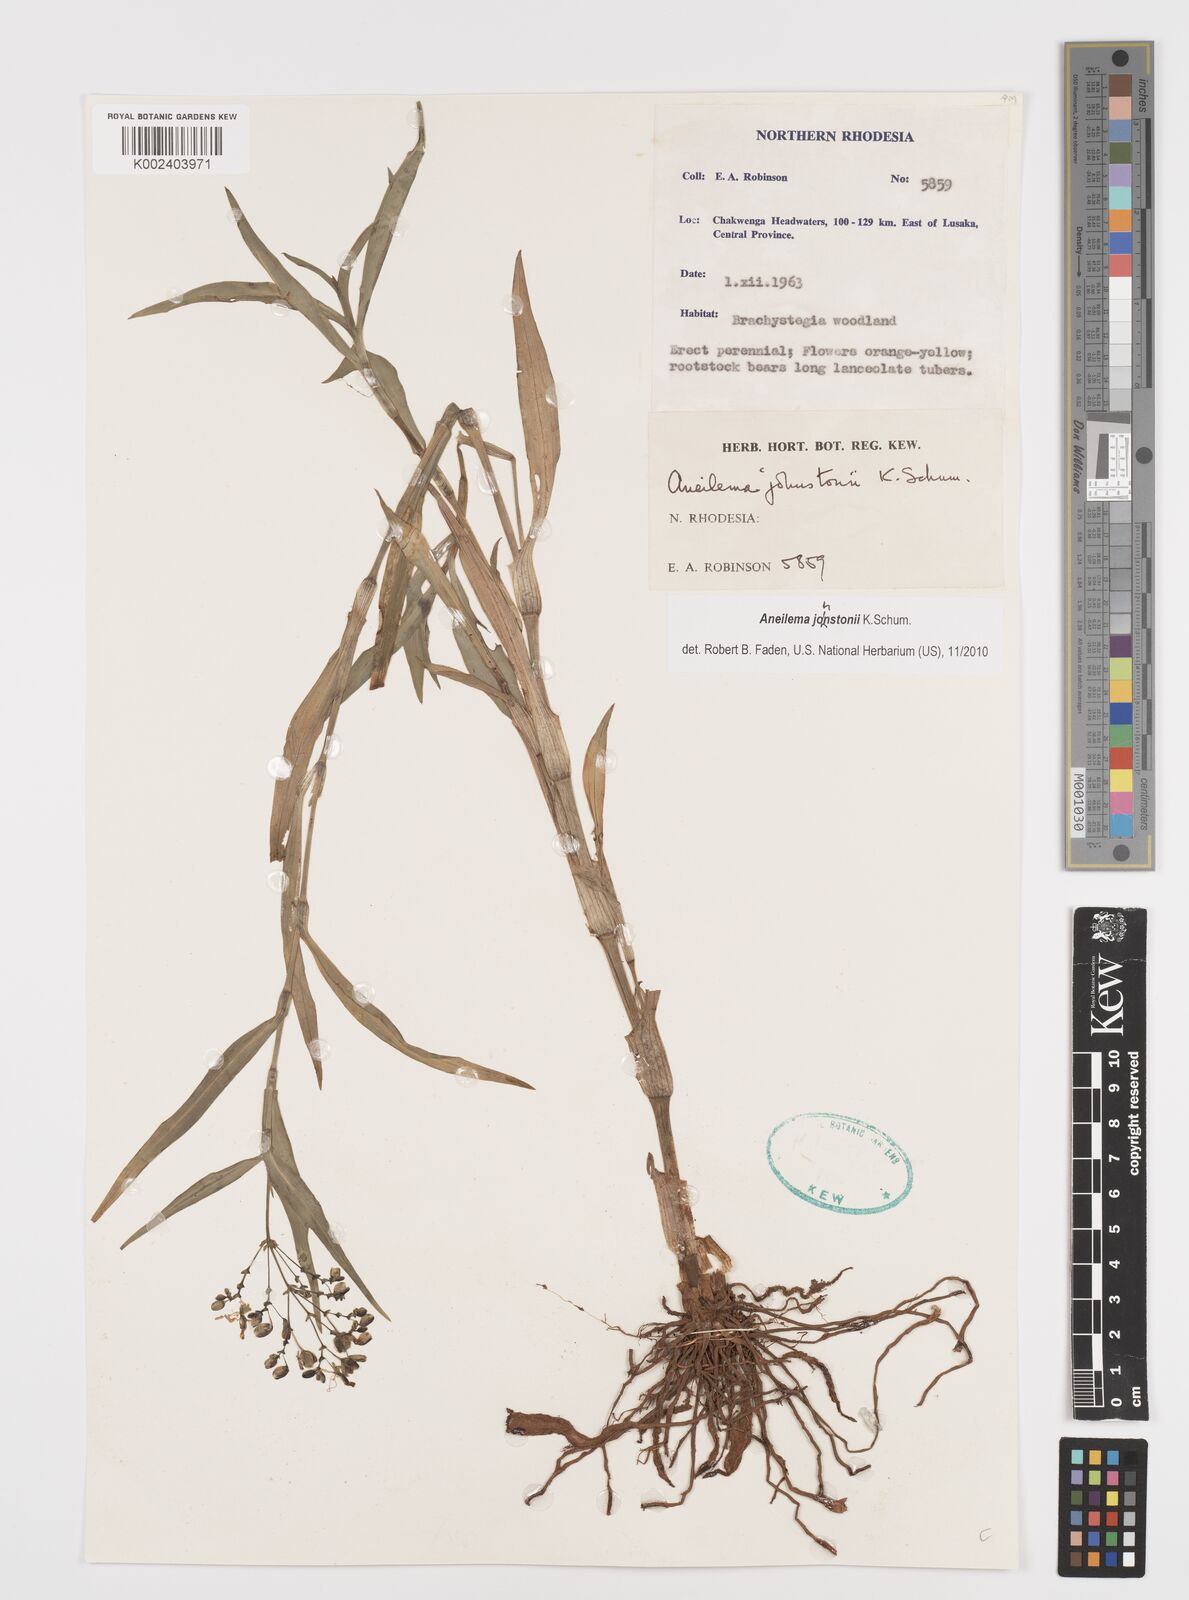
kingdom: Plantae
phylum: Tracheophyta
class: Liliopsida
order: Commelinales
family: Commelinaceae
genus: Aneilema
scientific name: Aneilema johnstonii
